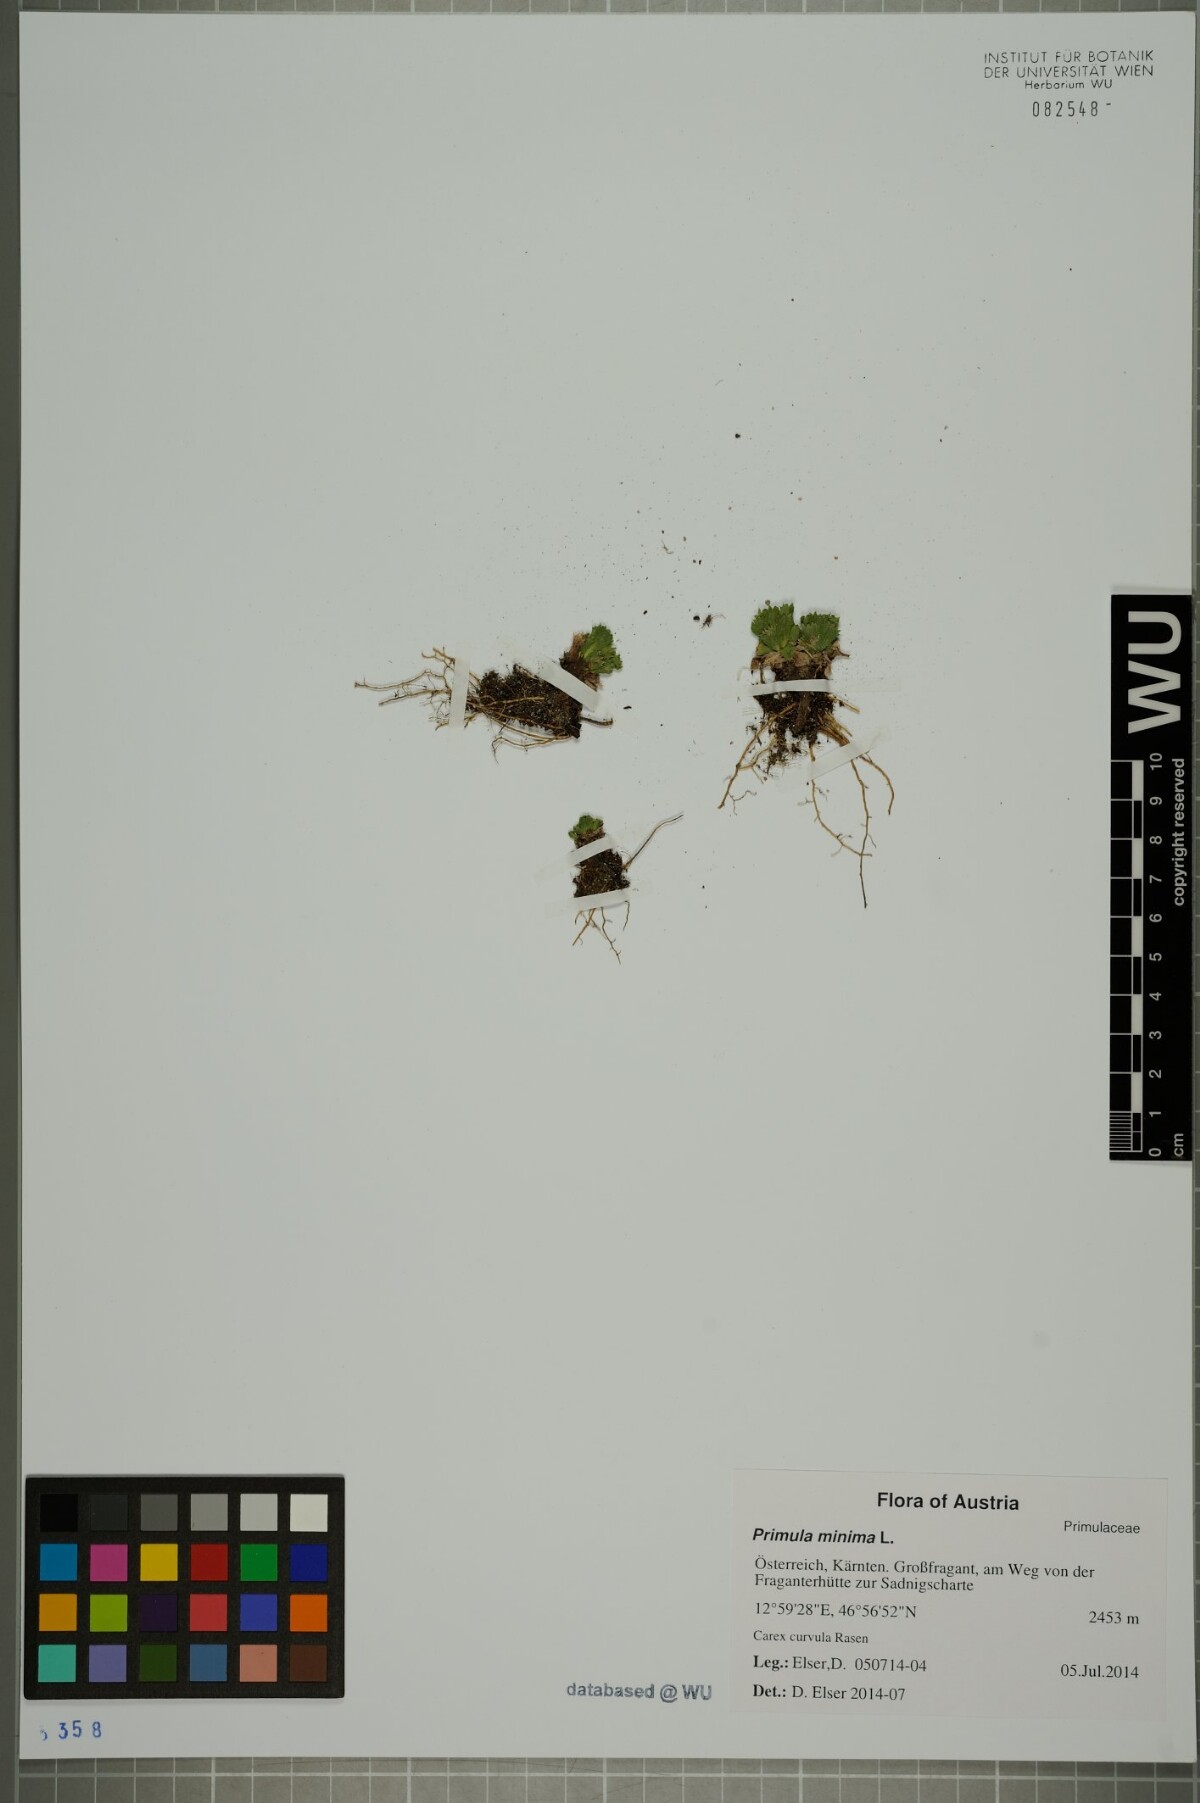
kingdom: Plantae
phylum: Tracheophyta
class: Magnoliopsida
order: Ericales
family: Primulaceae
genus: Primula
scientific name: Primula minima
